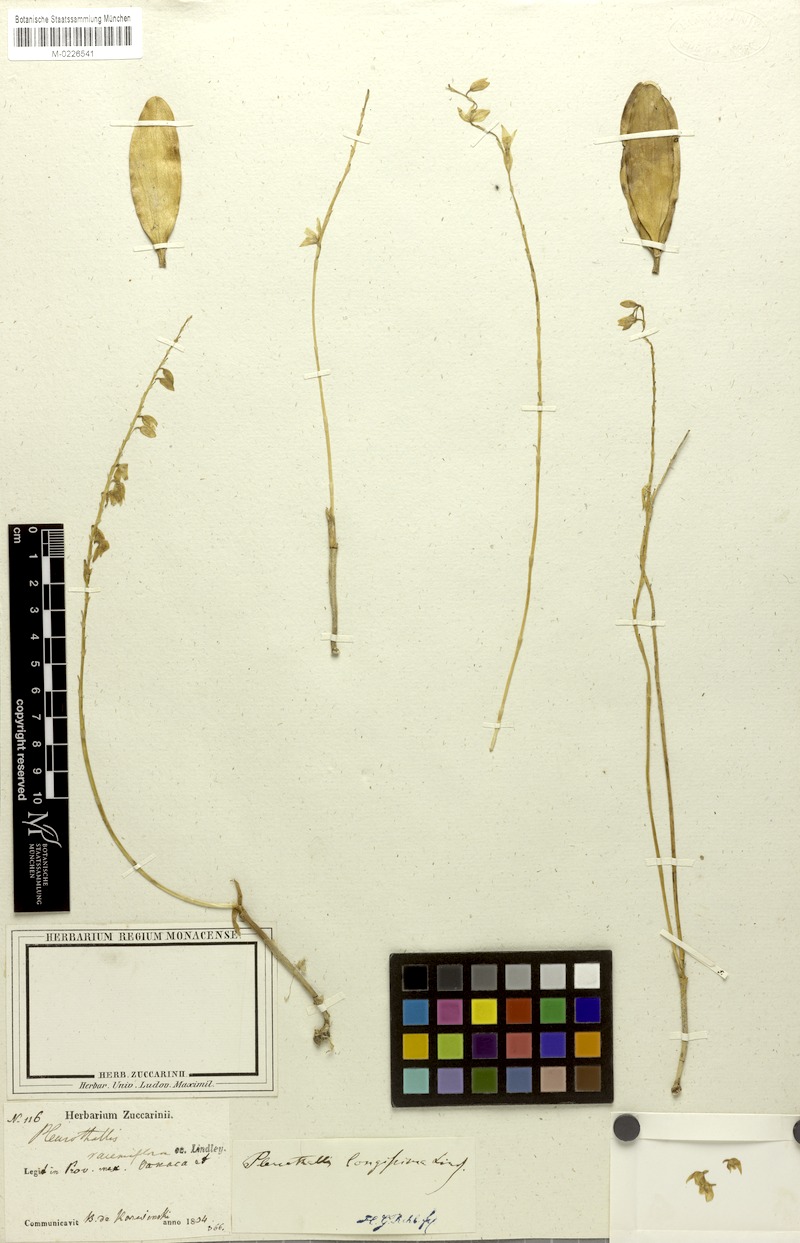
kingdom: Plantae
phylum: Tracheophyta
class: Liliopsida
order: Asparagales
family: Orchidaceae
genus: Pleurothallis
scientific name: Pleurothallis quadrifida
